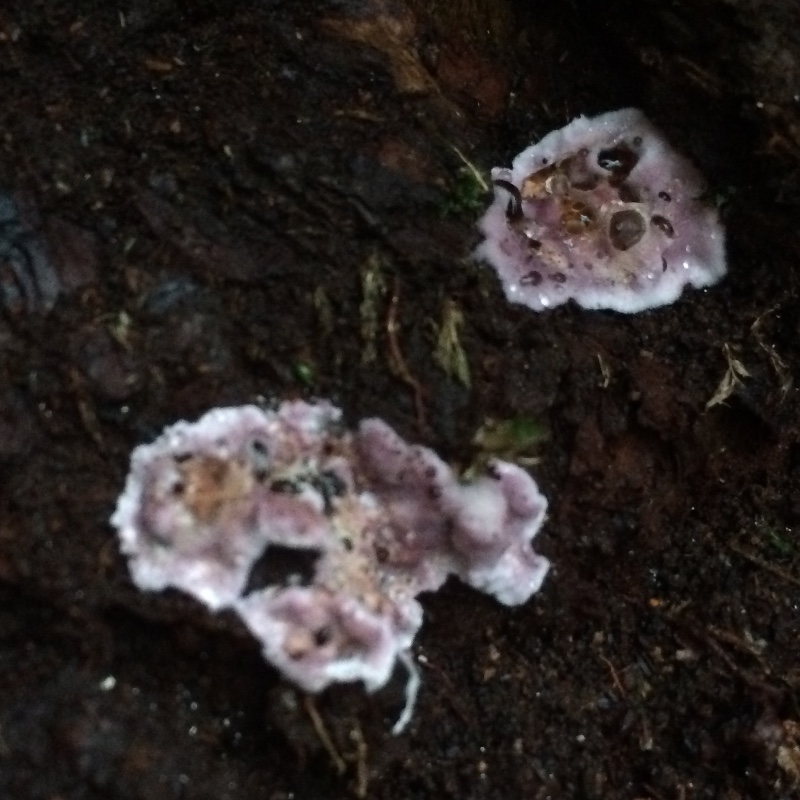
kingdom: Fungi
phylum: Basidiomycota
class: Agaricomycetes
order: Agaricales
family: Cyphellaceae
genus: Chondrostereum
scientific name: Chondrostereum purpureum
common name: purpurlædersvamp
